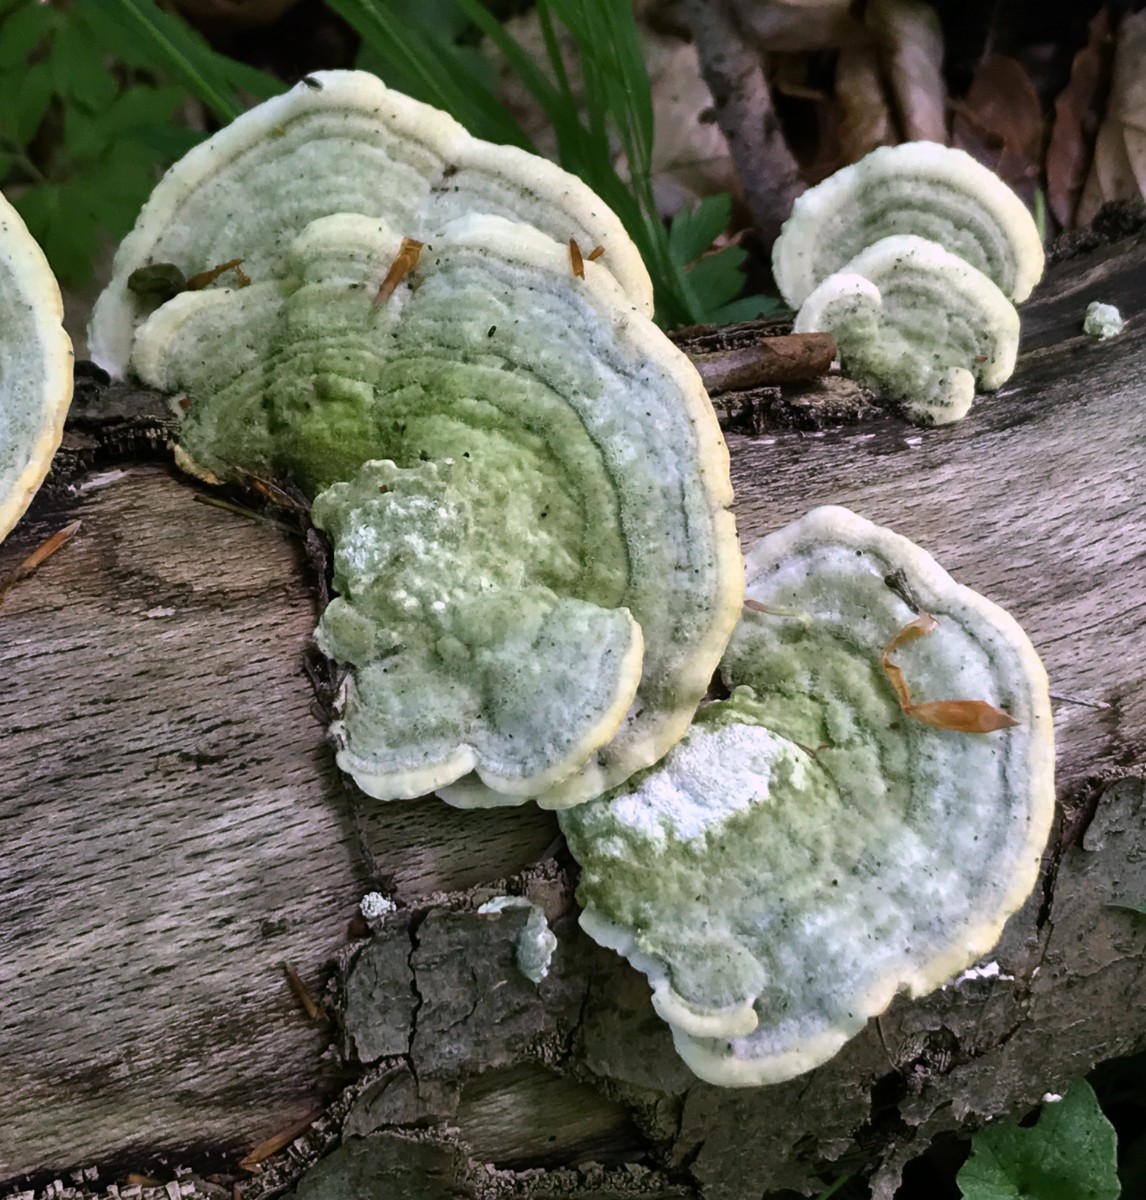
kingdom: Fungi
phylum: Basidiomycota
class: Agaricomycetes
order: Polyporales
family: Polyporaceae
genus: Trametes
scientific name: Trametes hirsuta
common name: håret læderporesvamp
